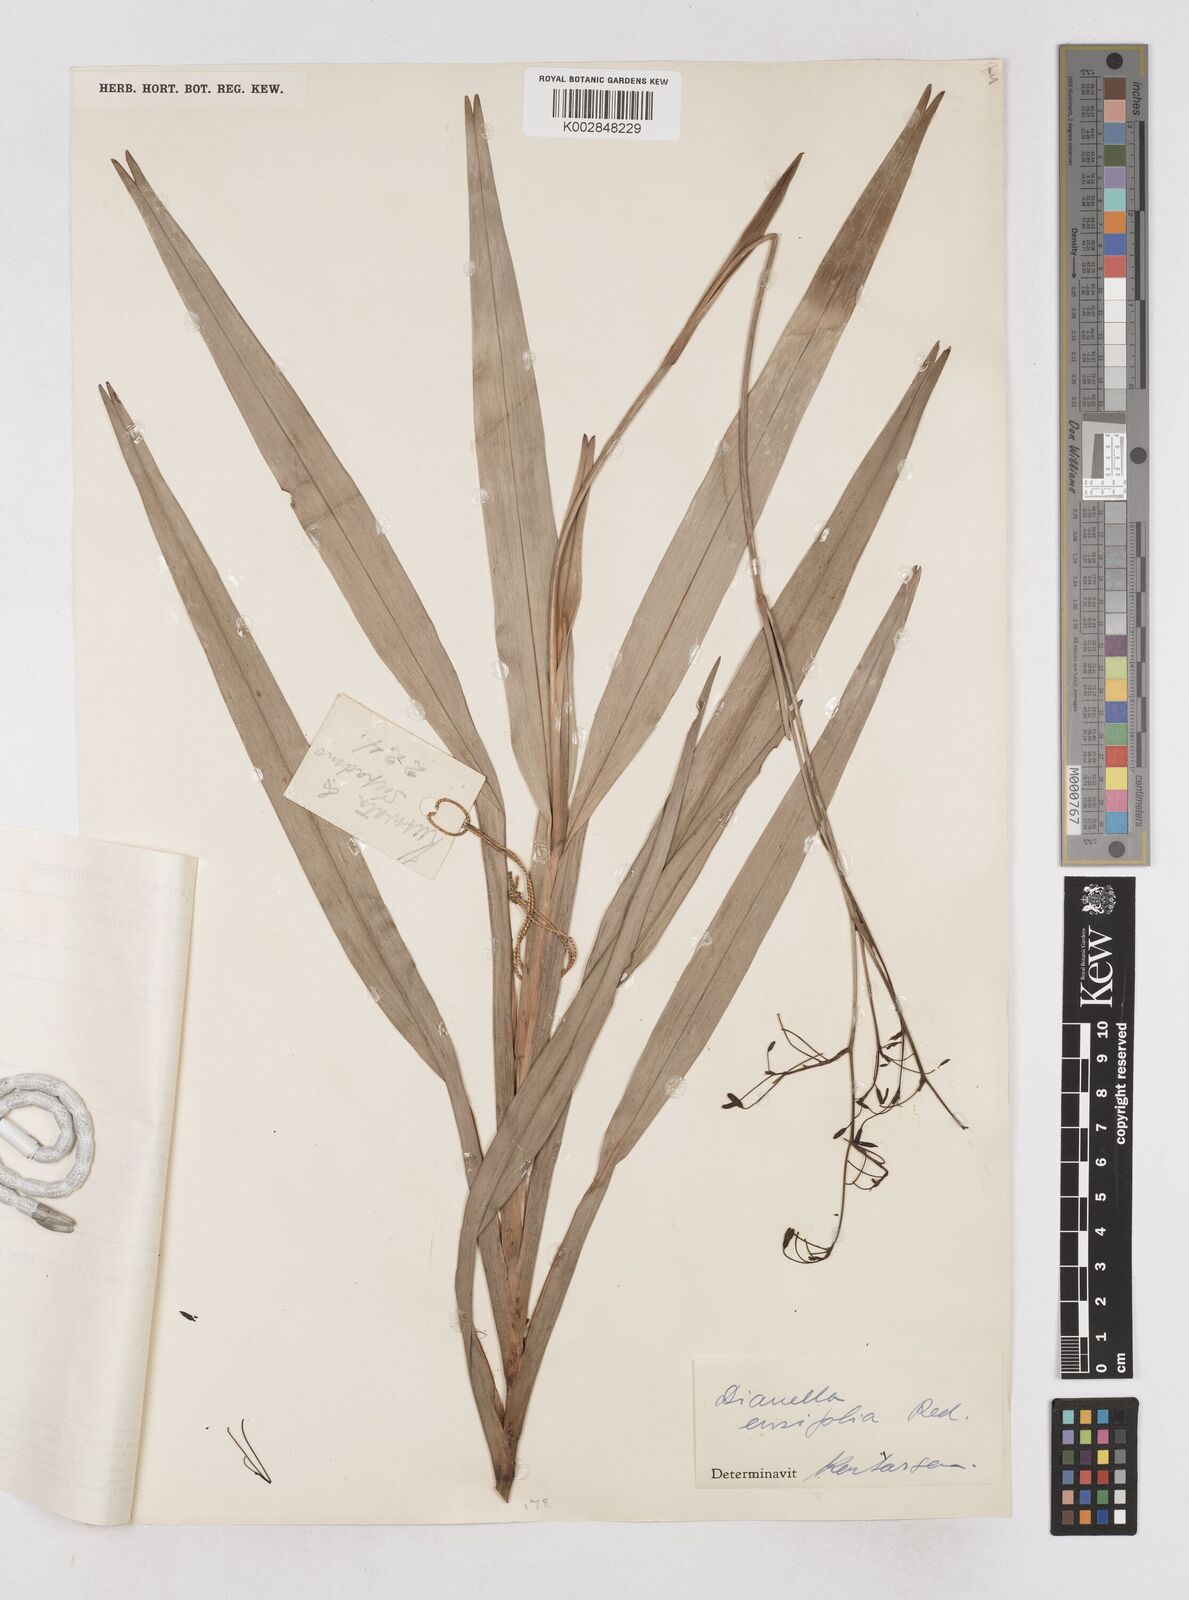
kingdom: Plantae
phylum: Tracheophyta
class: Liliopsida
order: Asparagales
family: Asphodelaceae
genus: Dianella
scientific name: Dianella ensifolia
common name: New zealand lilyplant
